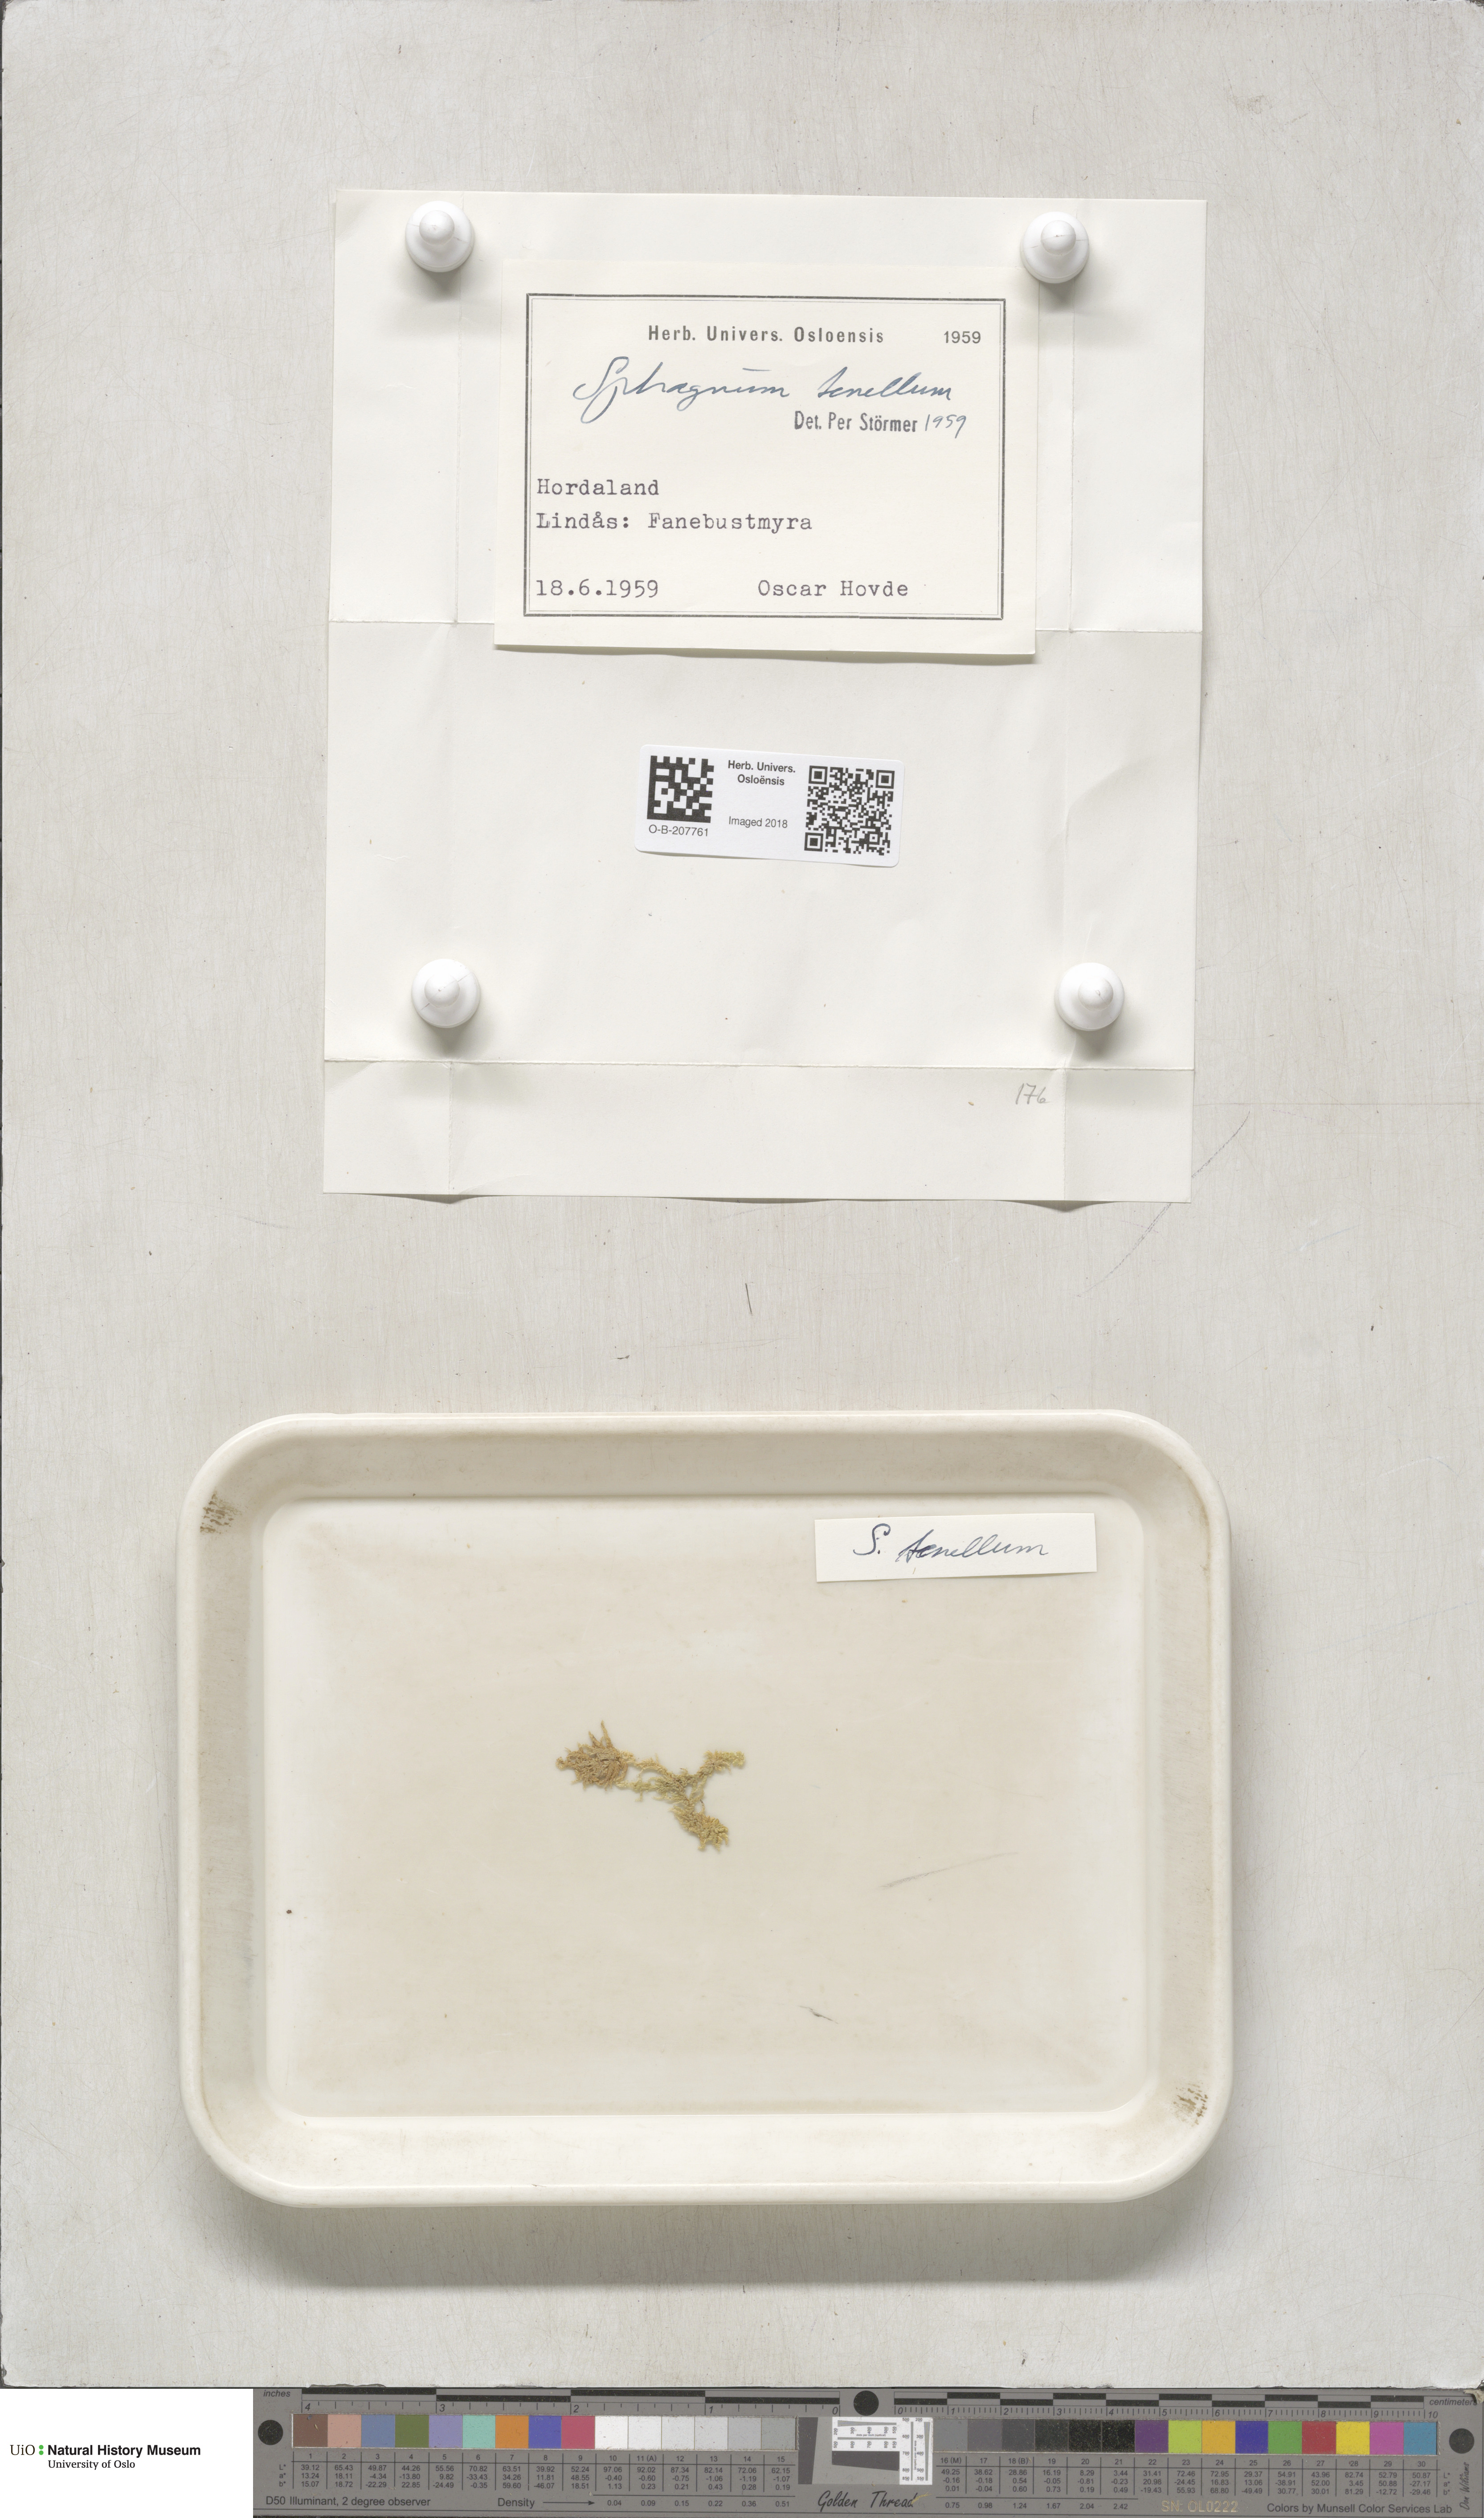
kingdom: Plantae
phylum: Bryophyta
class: Sphagnopsida
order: Sphagnales
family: Sphagnaceae
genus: Sphagnum
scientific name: Sphagnum tenellum
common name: Soft bog-moss
